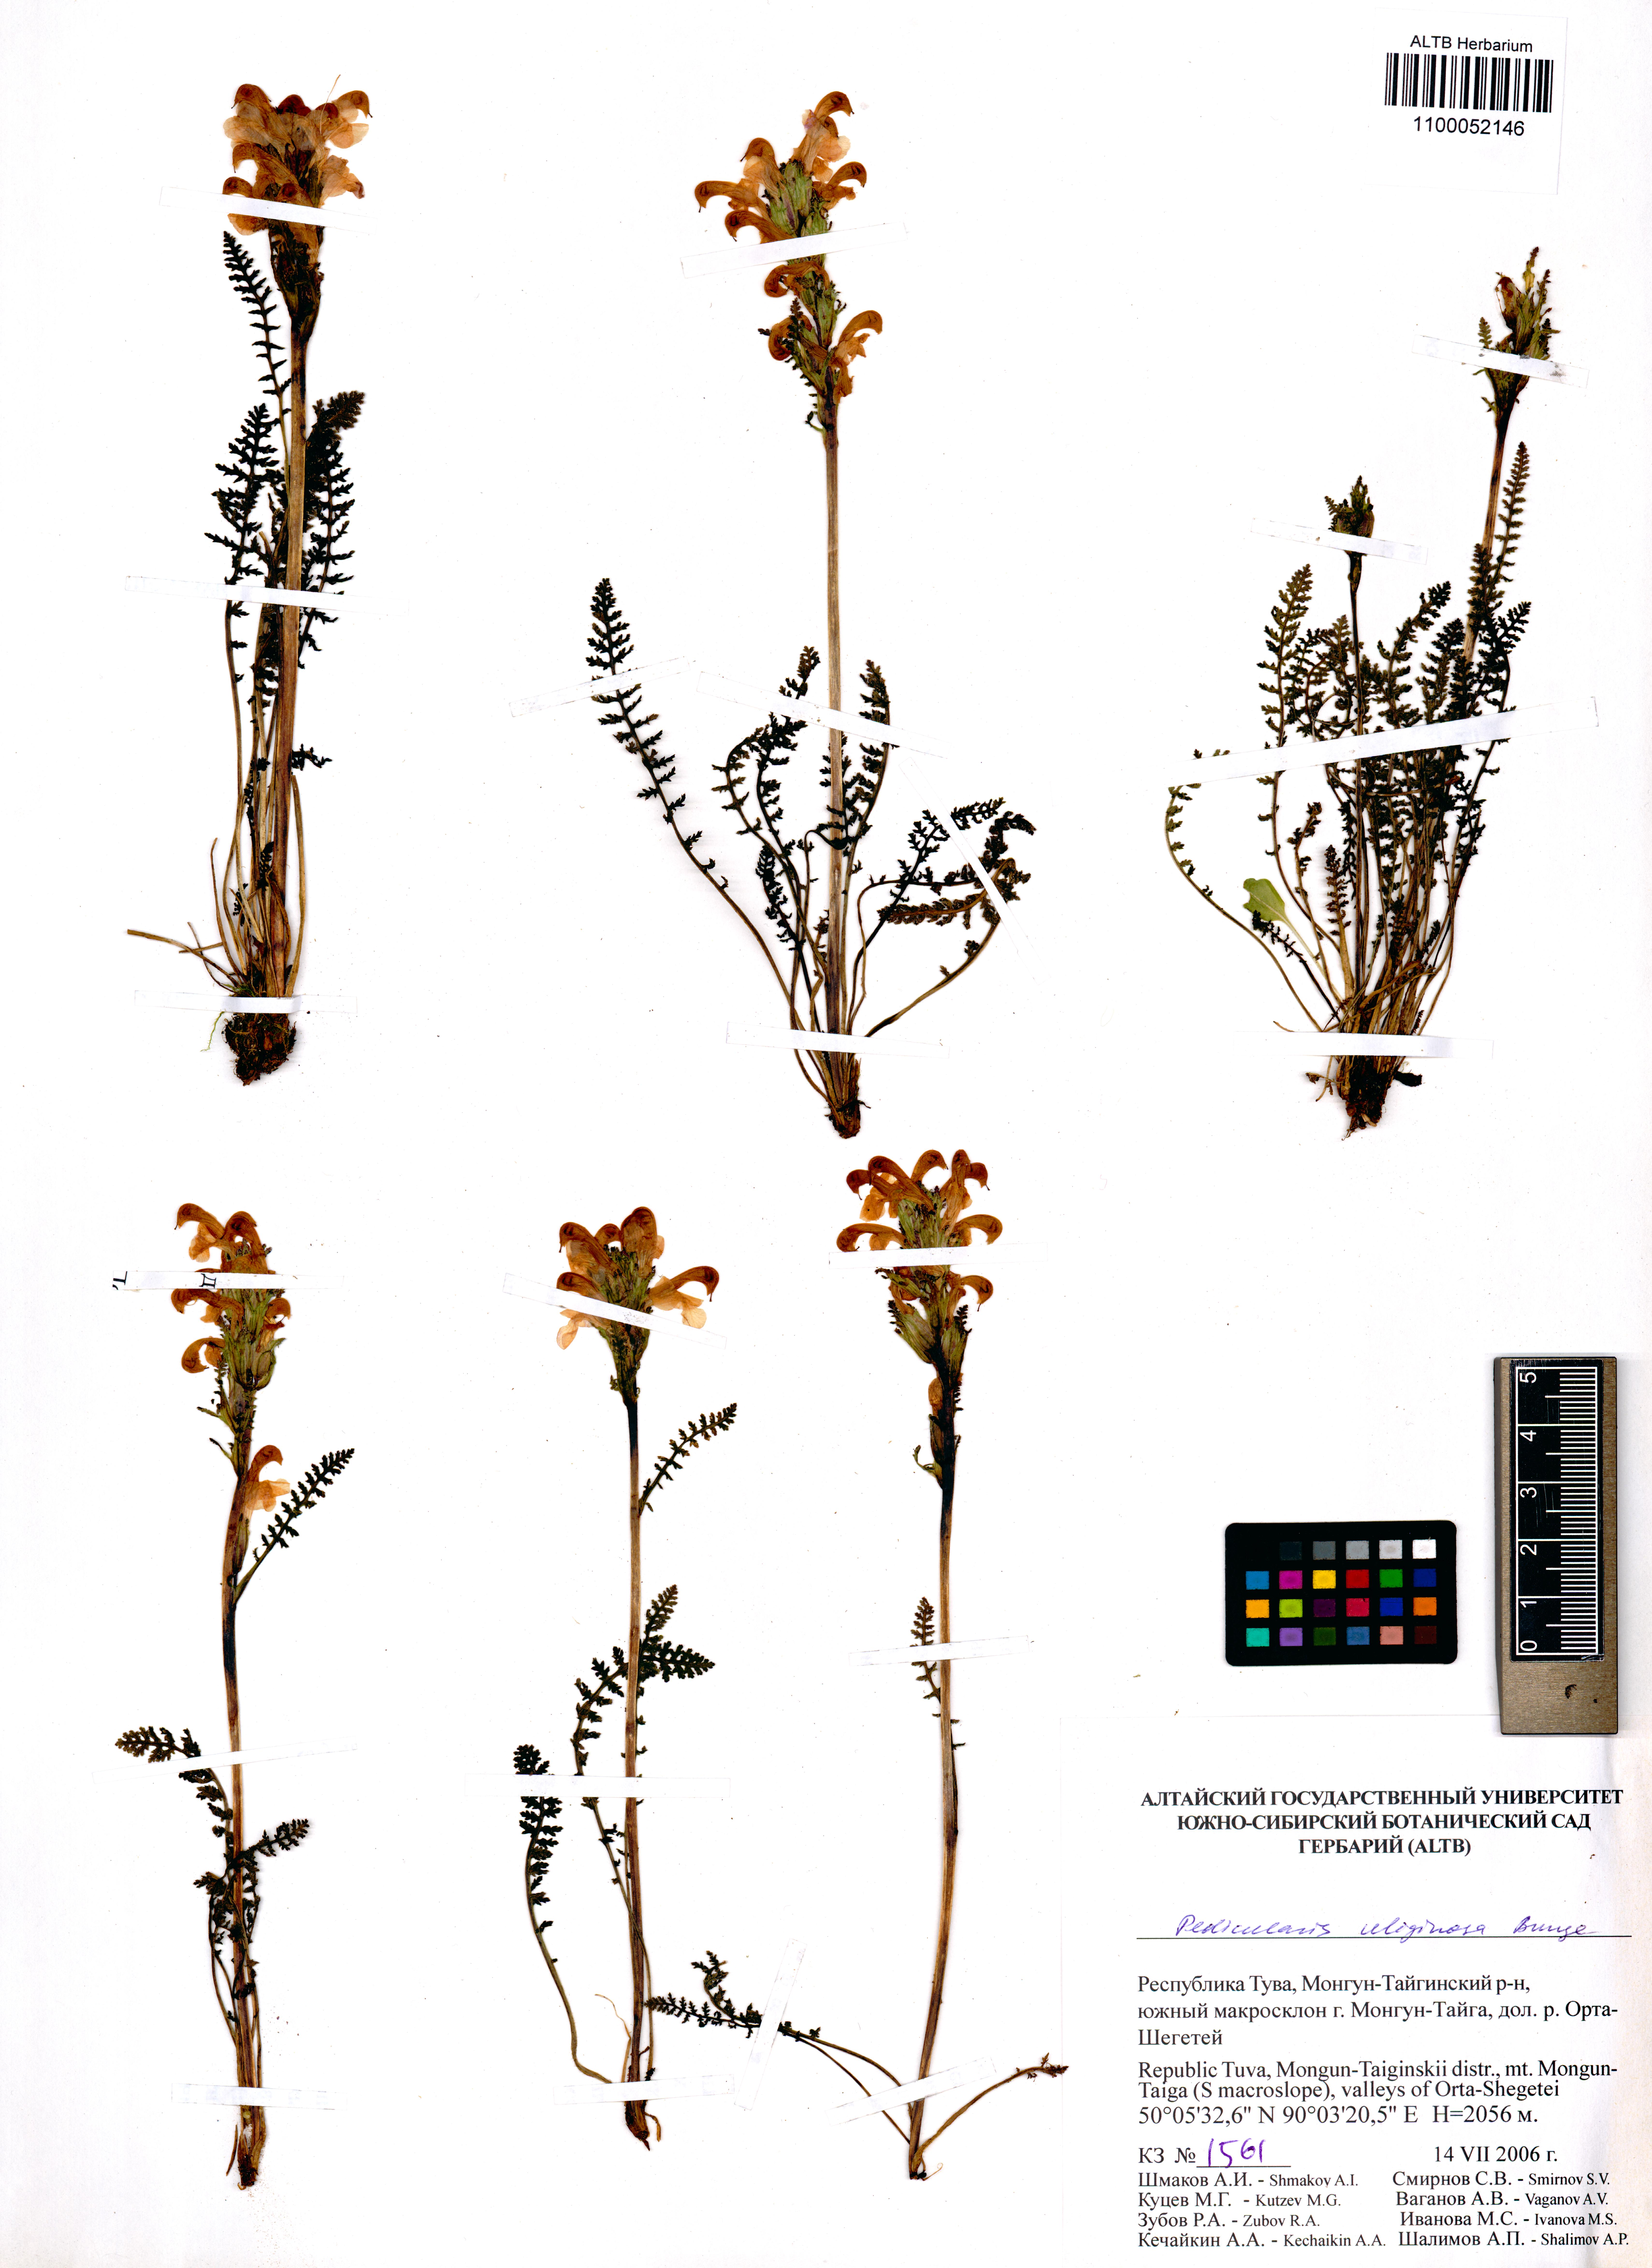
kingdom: Plantae
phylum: Tracheophyta
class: Magnoliopsida
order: Lamiales
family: Orobanchaceae
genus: Pedicularis
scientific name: Pedicularis uliginosa
